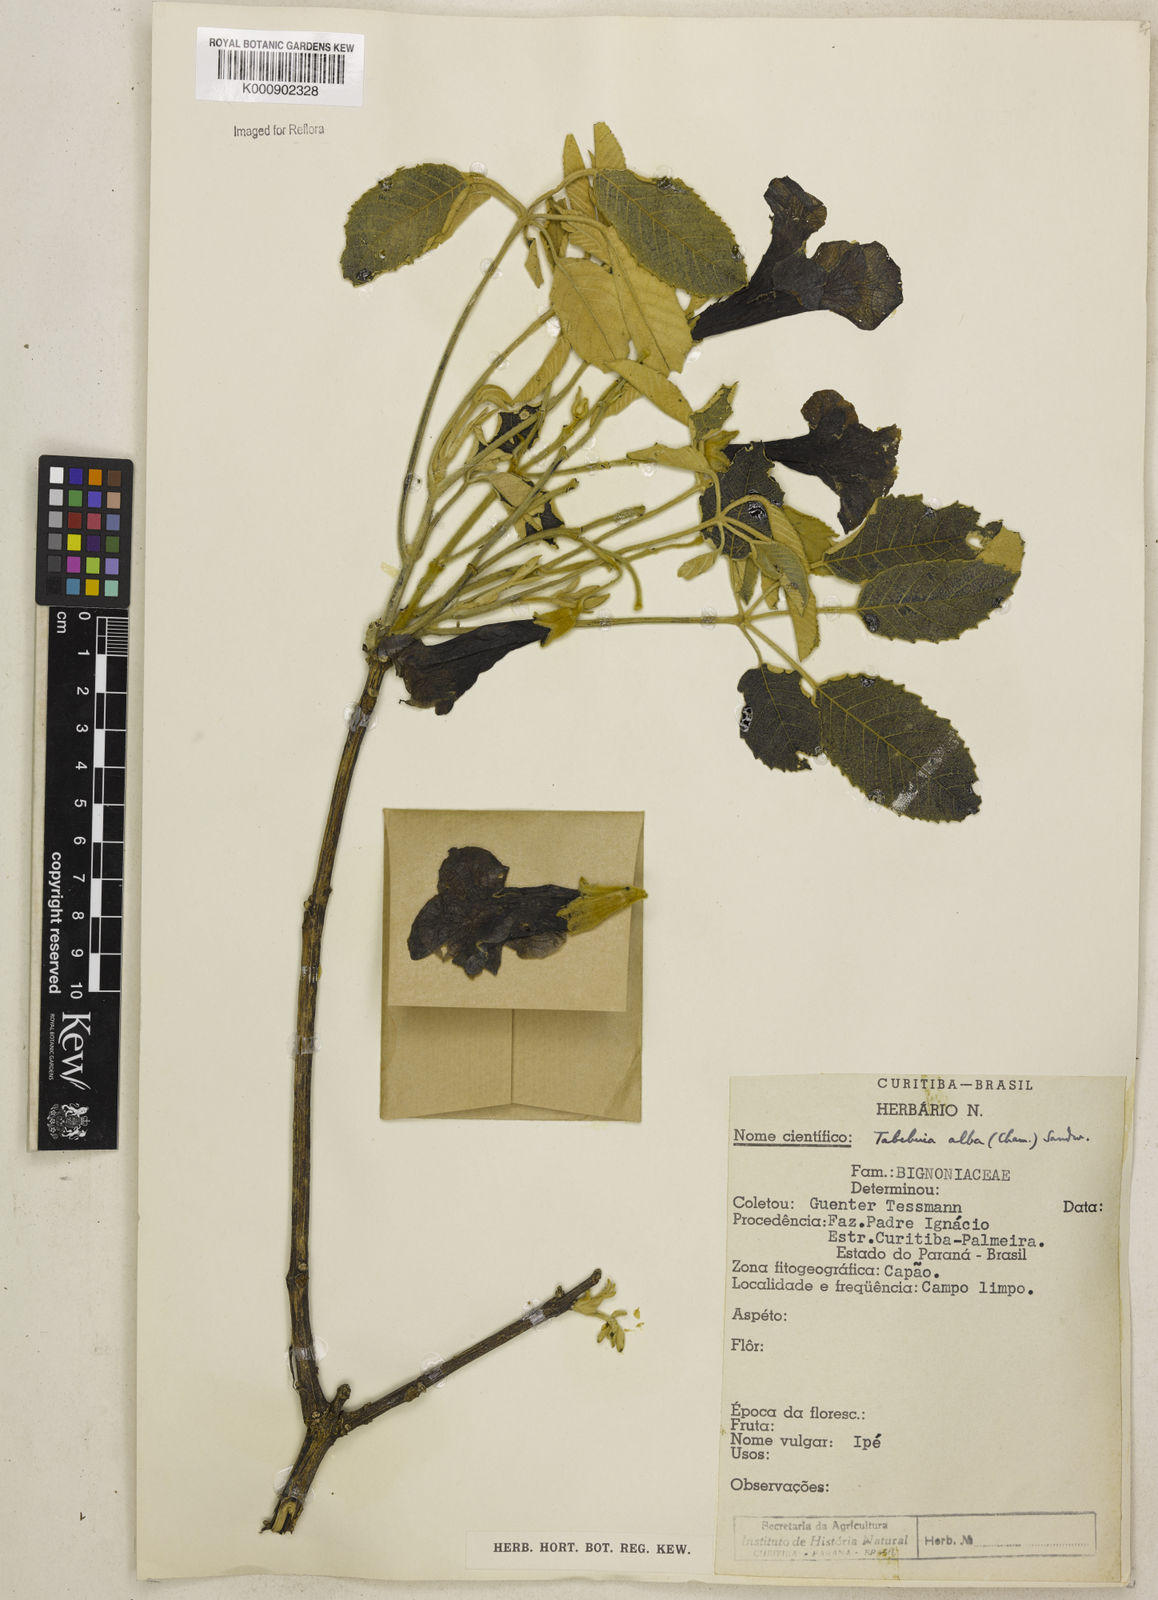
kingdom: Plantae
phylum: Tracheophyta
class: Magnoliopsida
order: Lamiales
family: Bignoniaceae
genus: Handroanthus
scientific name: Handroanthus albus
